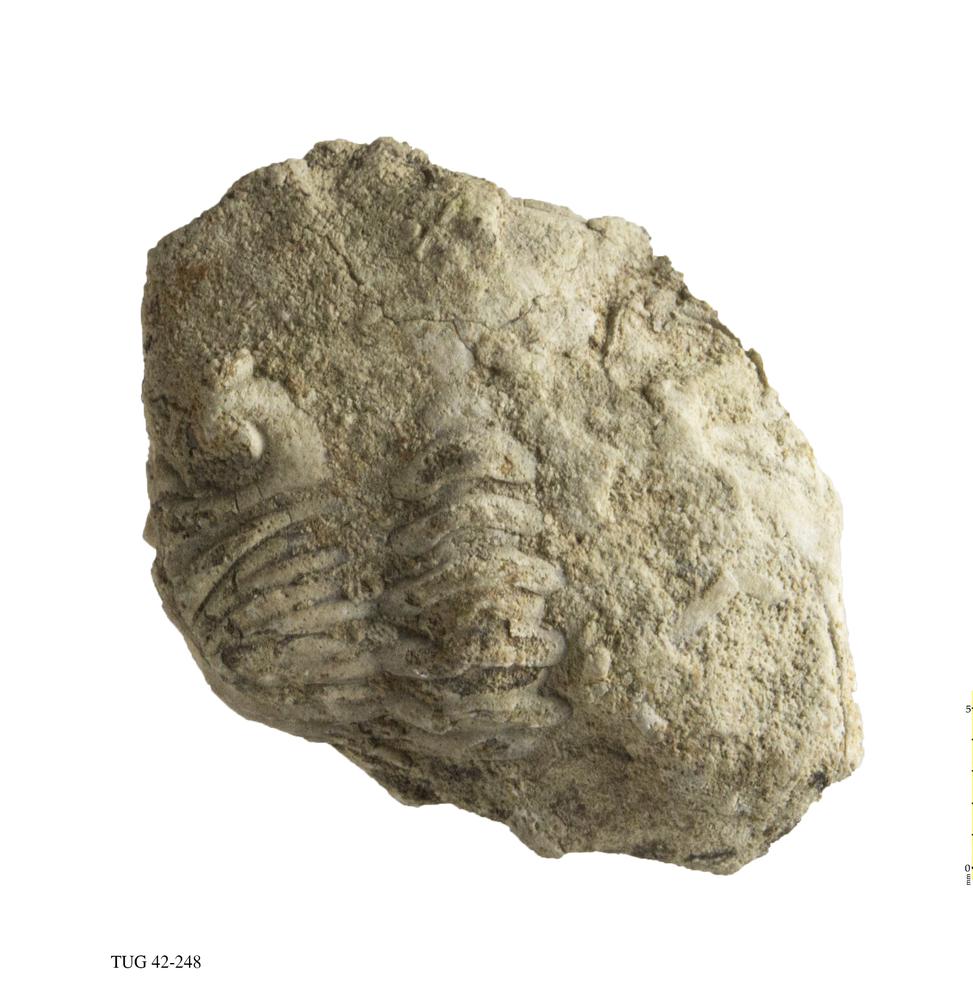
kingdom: Animalia
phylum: Arthropoda
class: Trilobita
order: Phacopida
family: Phacopidae
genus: Phacops
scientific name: Phacops
